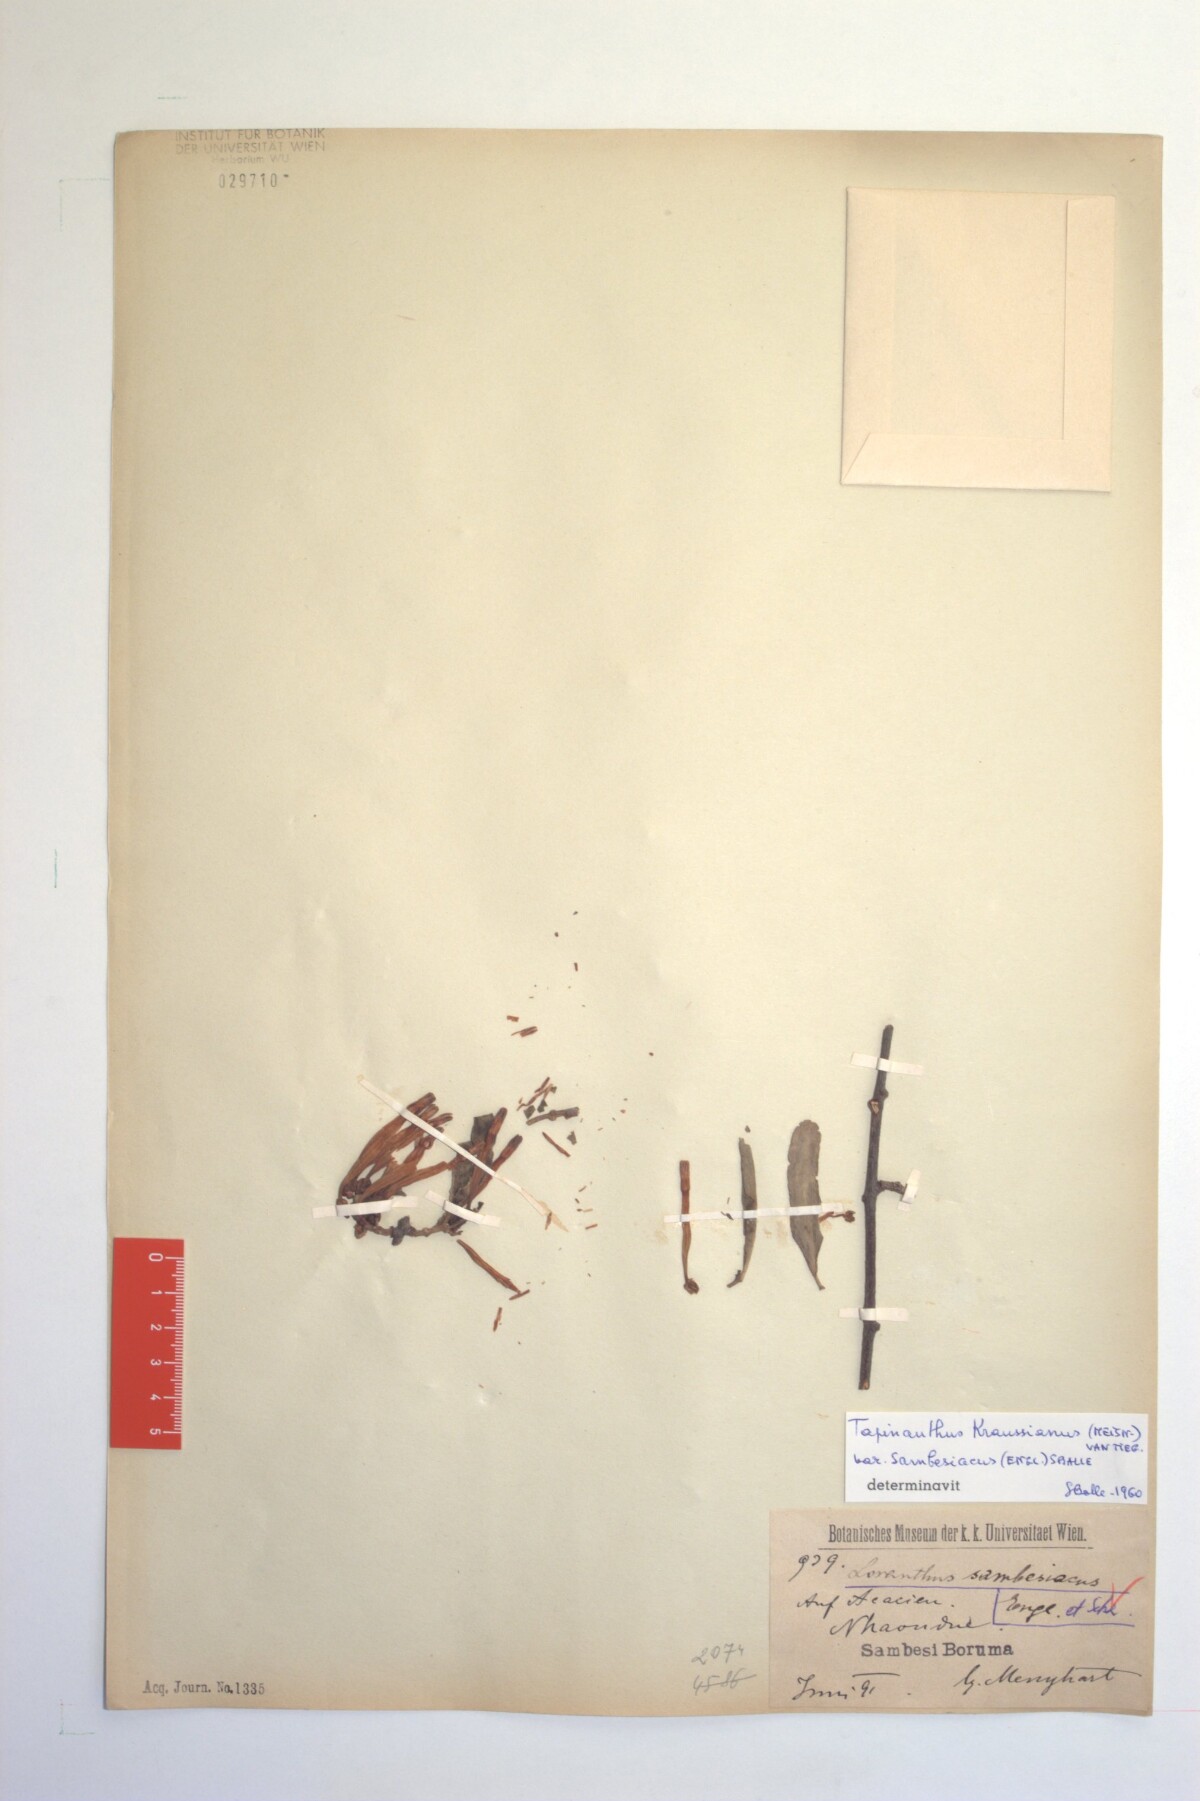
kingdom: Plantae
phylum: Tracheophyta
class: Magnoliopsida
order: Santalales
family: Loranthaceae
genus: Agelanthus
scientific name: Agelanthus sambesiacus
